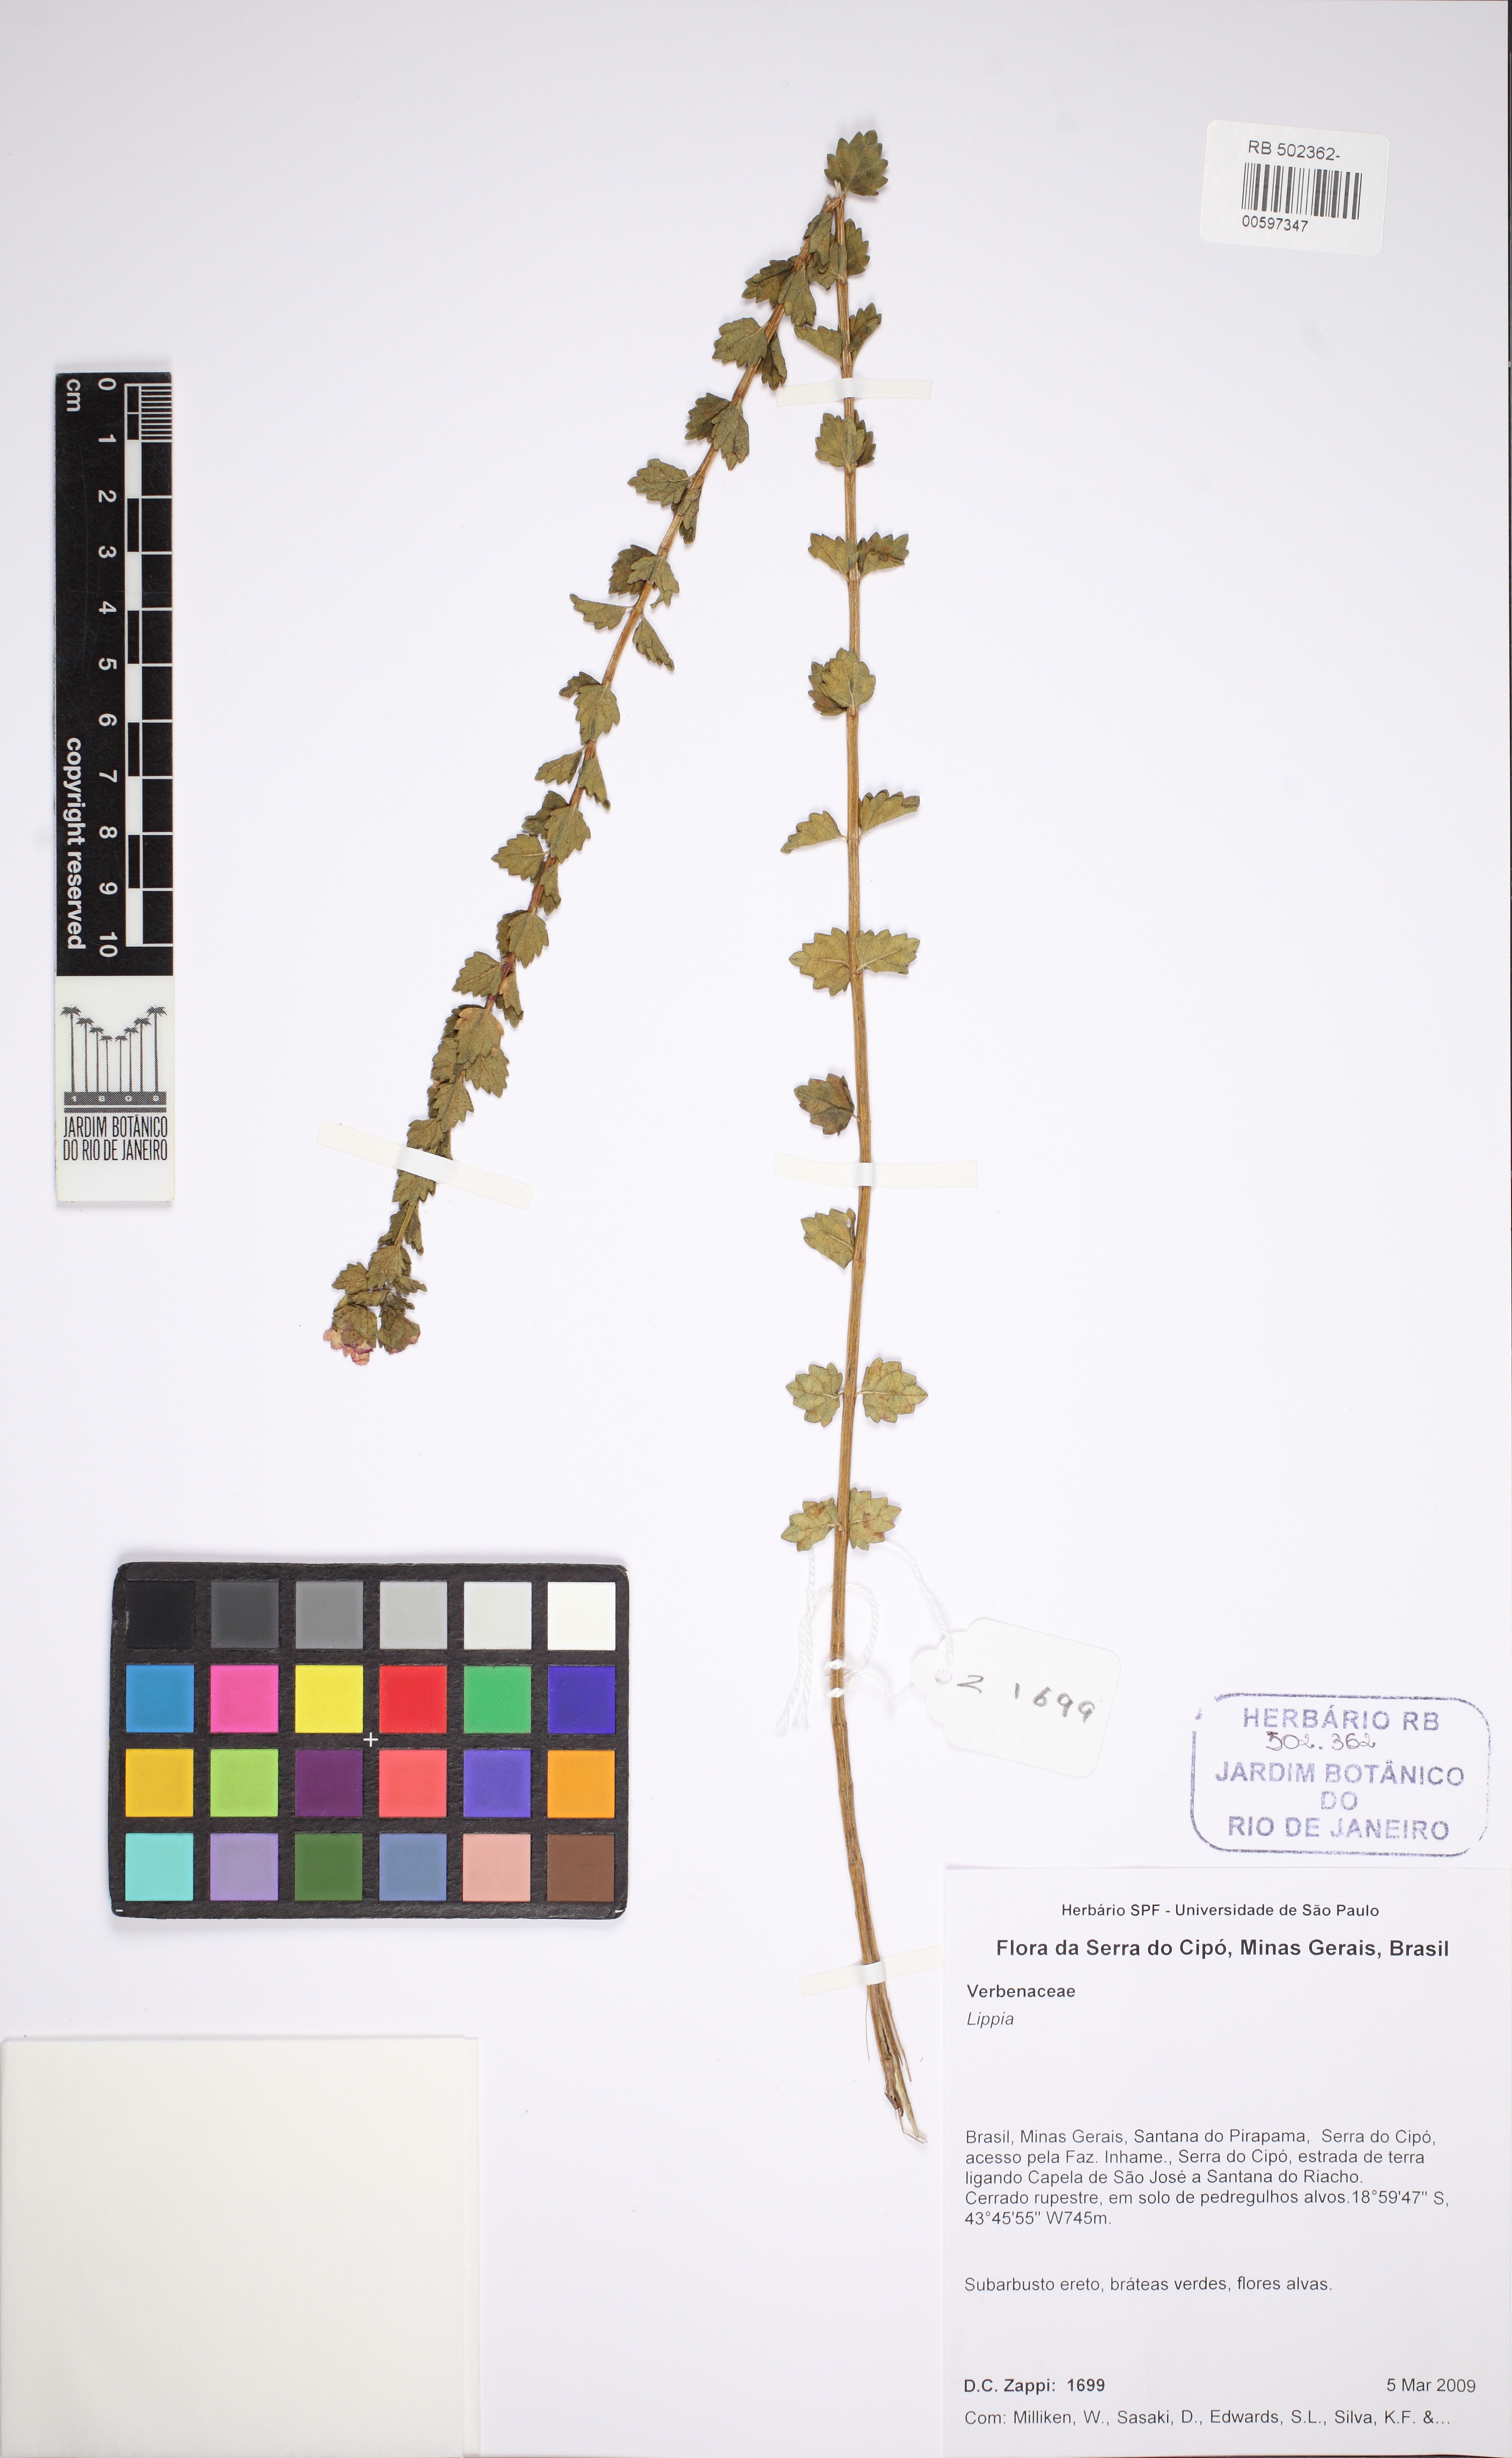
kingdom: Plantae
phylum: Tracheophyta
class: Magnoliopsida
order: Lamiales
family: Verbenaceae
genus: Lippia
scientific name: Lippia
